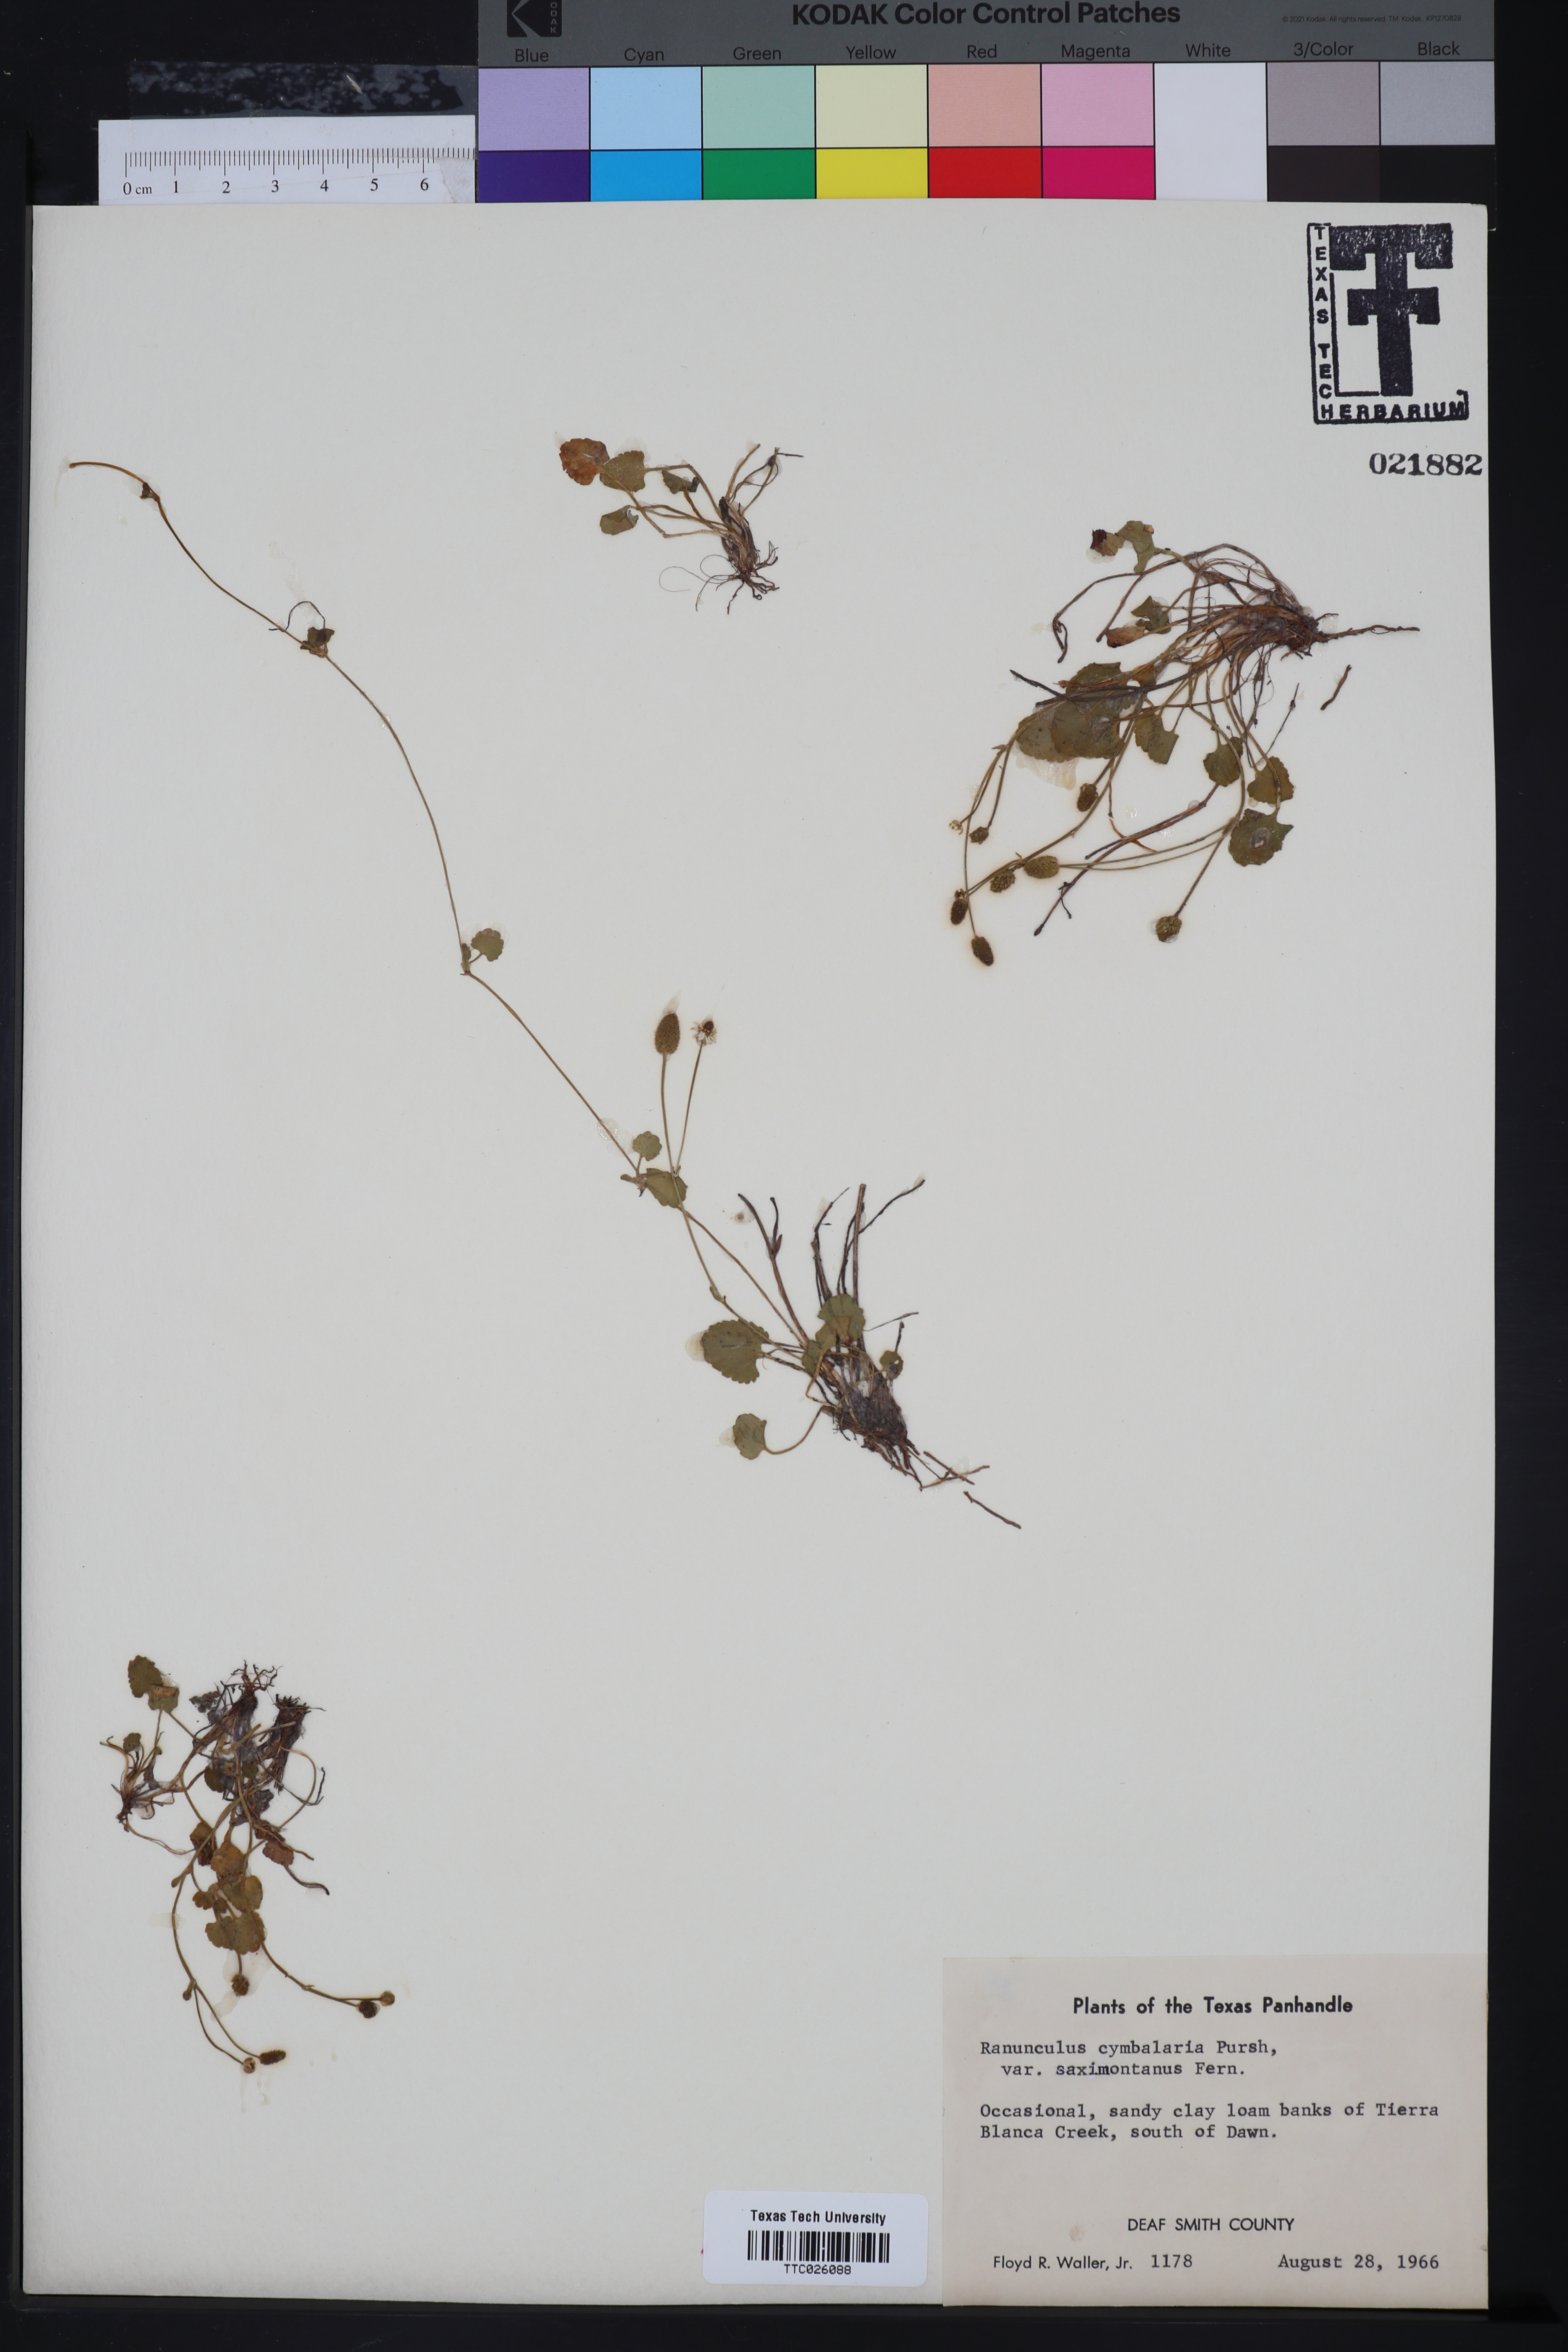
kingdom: Plantae
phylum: Tracheophyta
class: Magnoliopsida
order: Ranunculales
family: Ranunculaceae
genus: Halerpestes
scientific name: Halerpestes cymbalaria
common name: Seaside crowfoot
